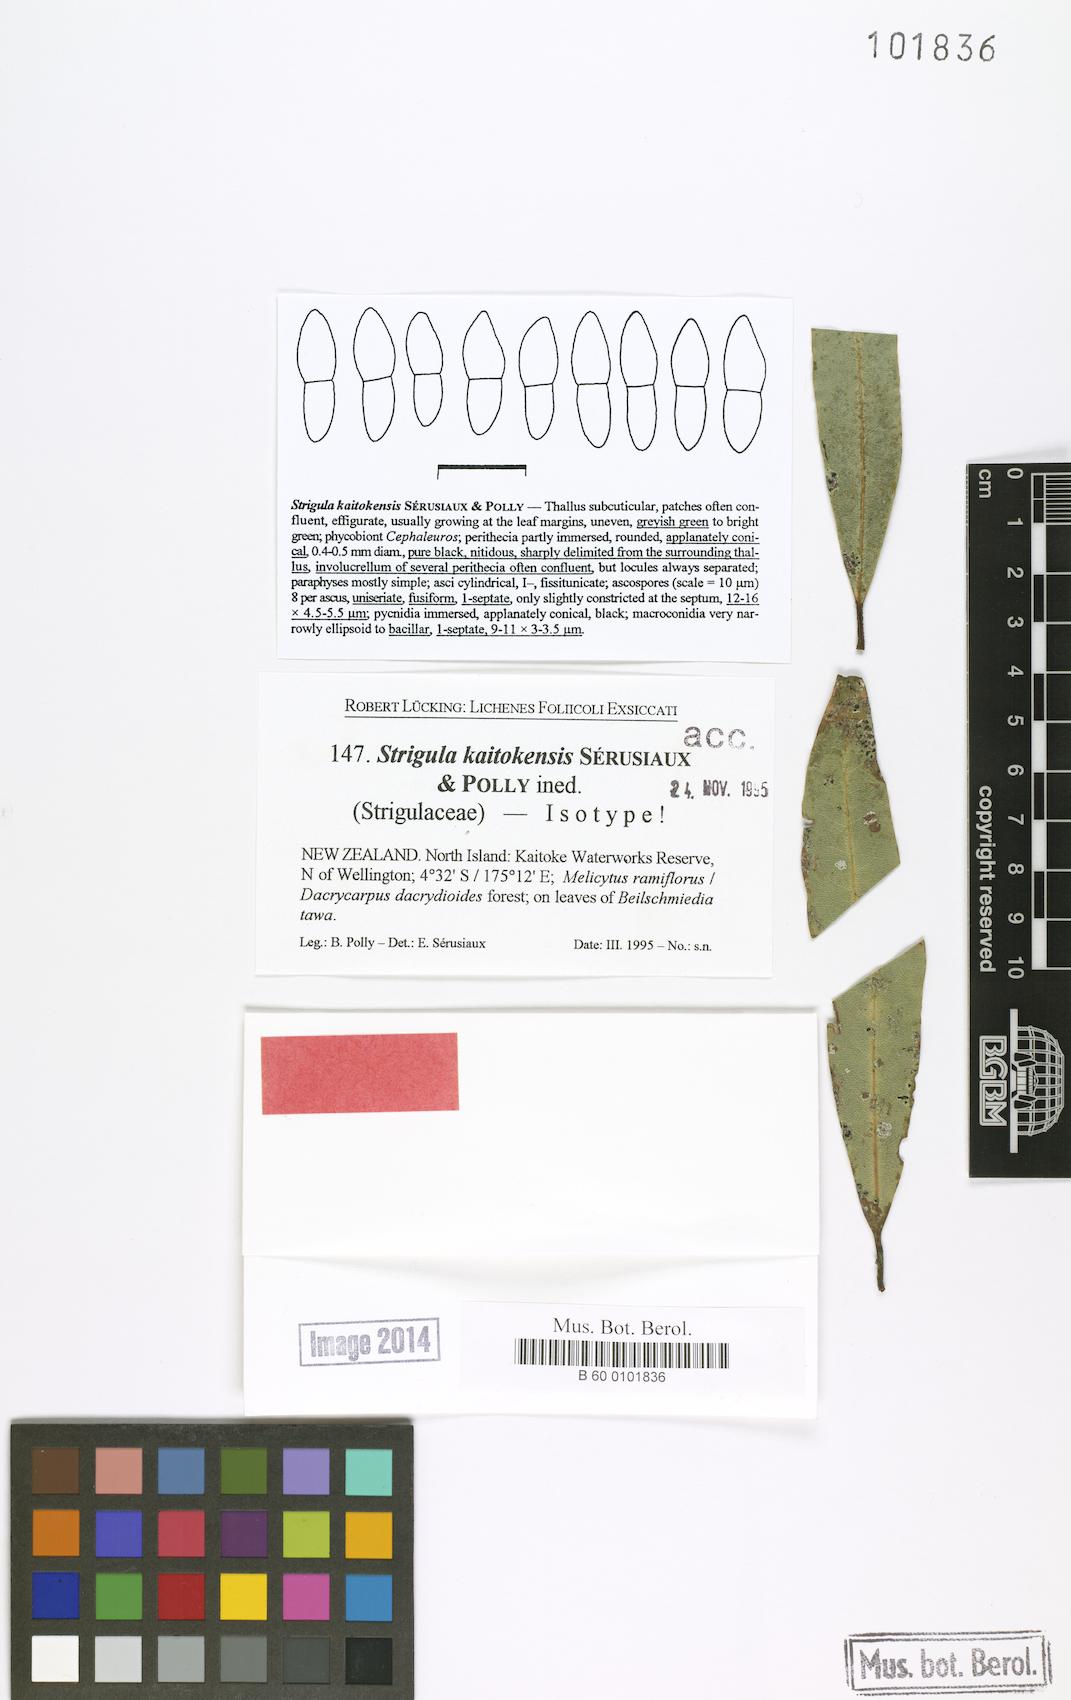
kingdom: Fungi
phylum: Ascomycota
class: Dothideomycetes
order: Strigulales
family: Strigulaceae
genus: Strigula
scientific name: Strigula
